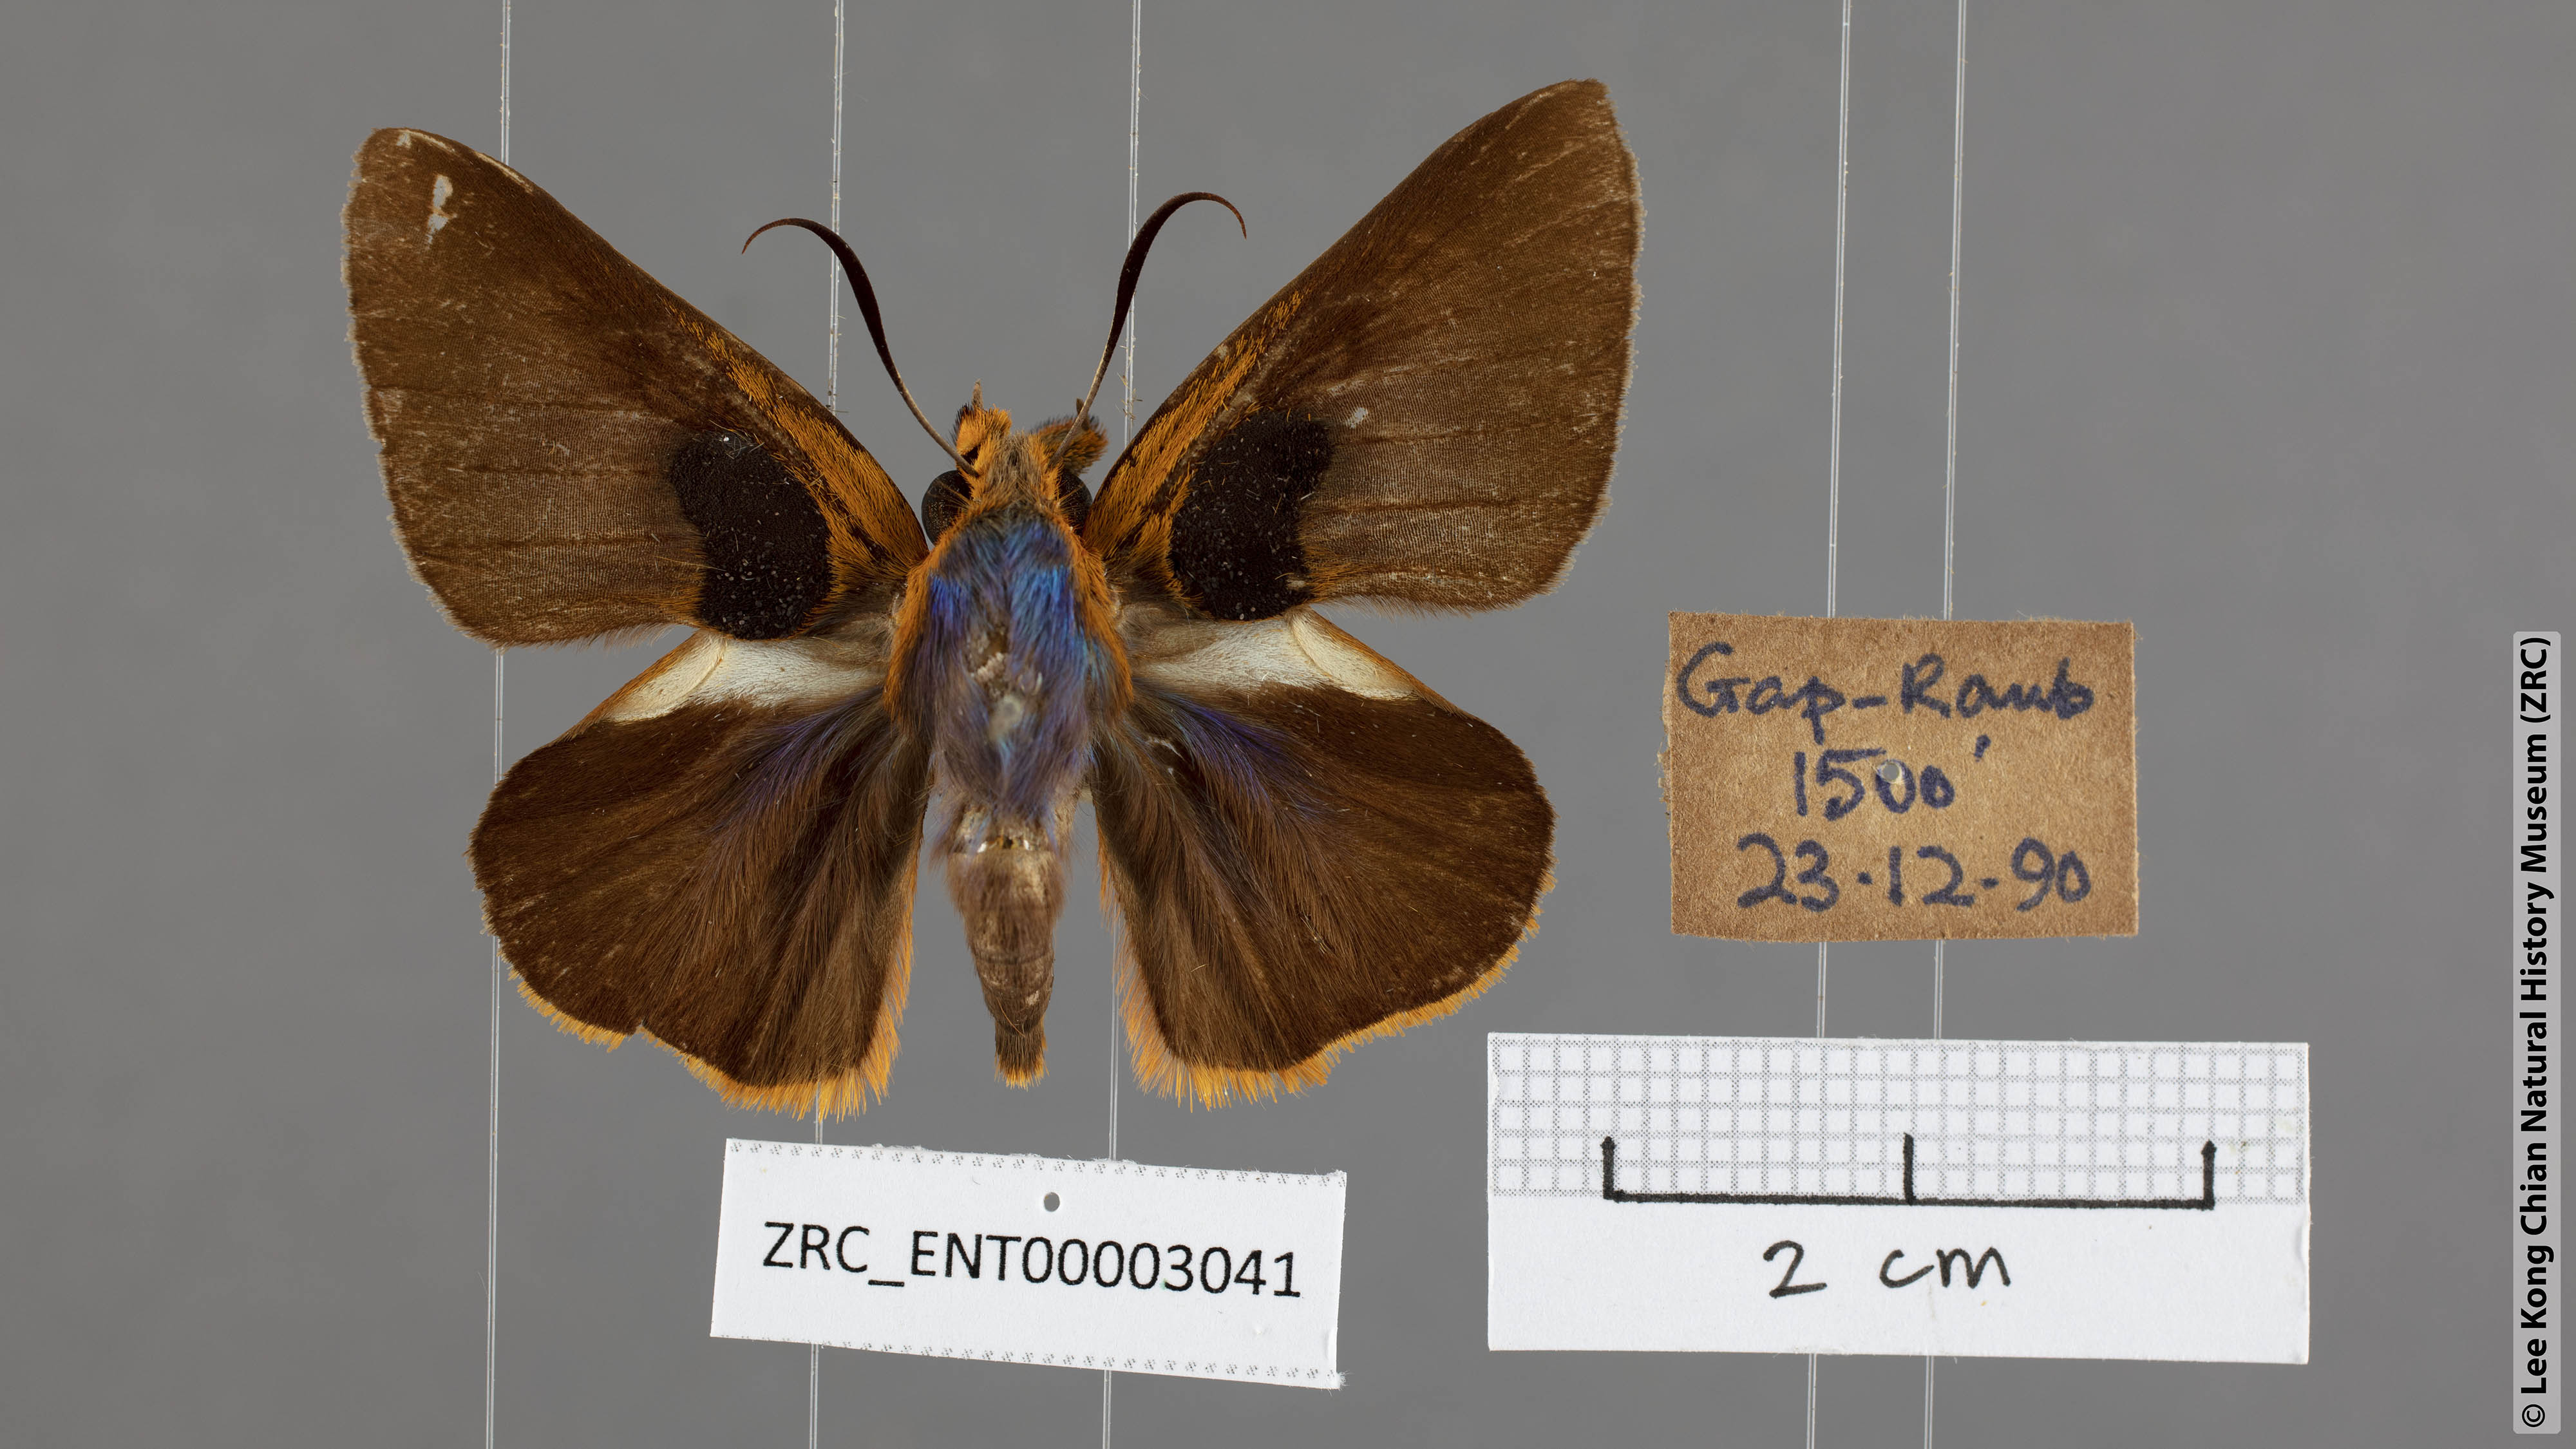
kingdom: Animalia
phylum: Arthropoda
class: Insecta
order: Lepidoptera
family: Hesperiidae
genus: Bibasis
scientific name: Bibasis Burara oedipodea
